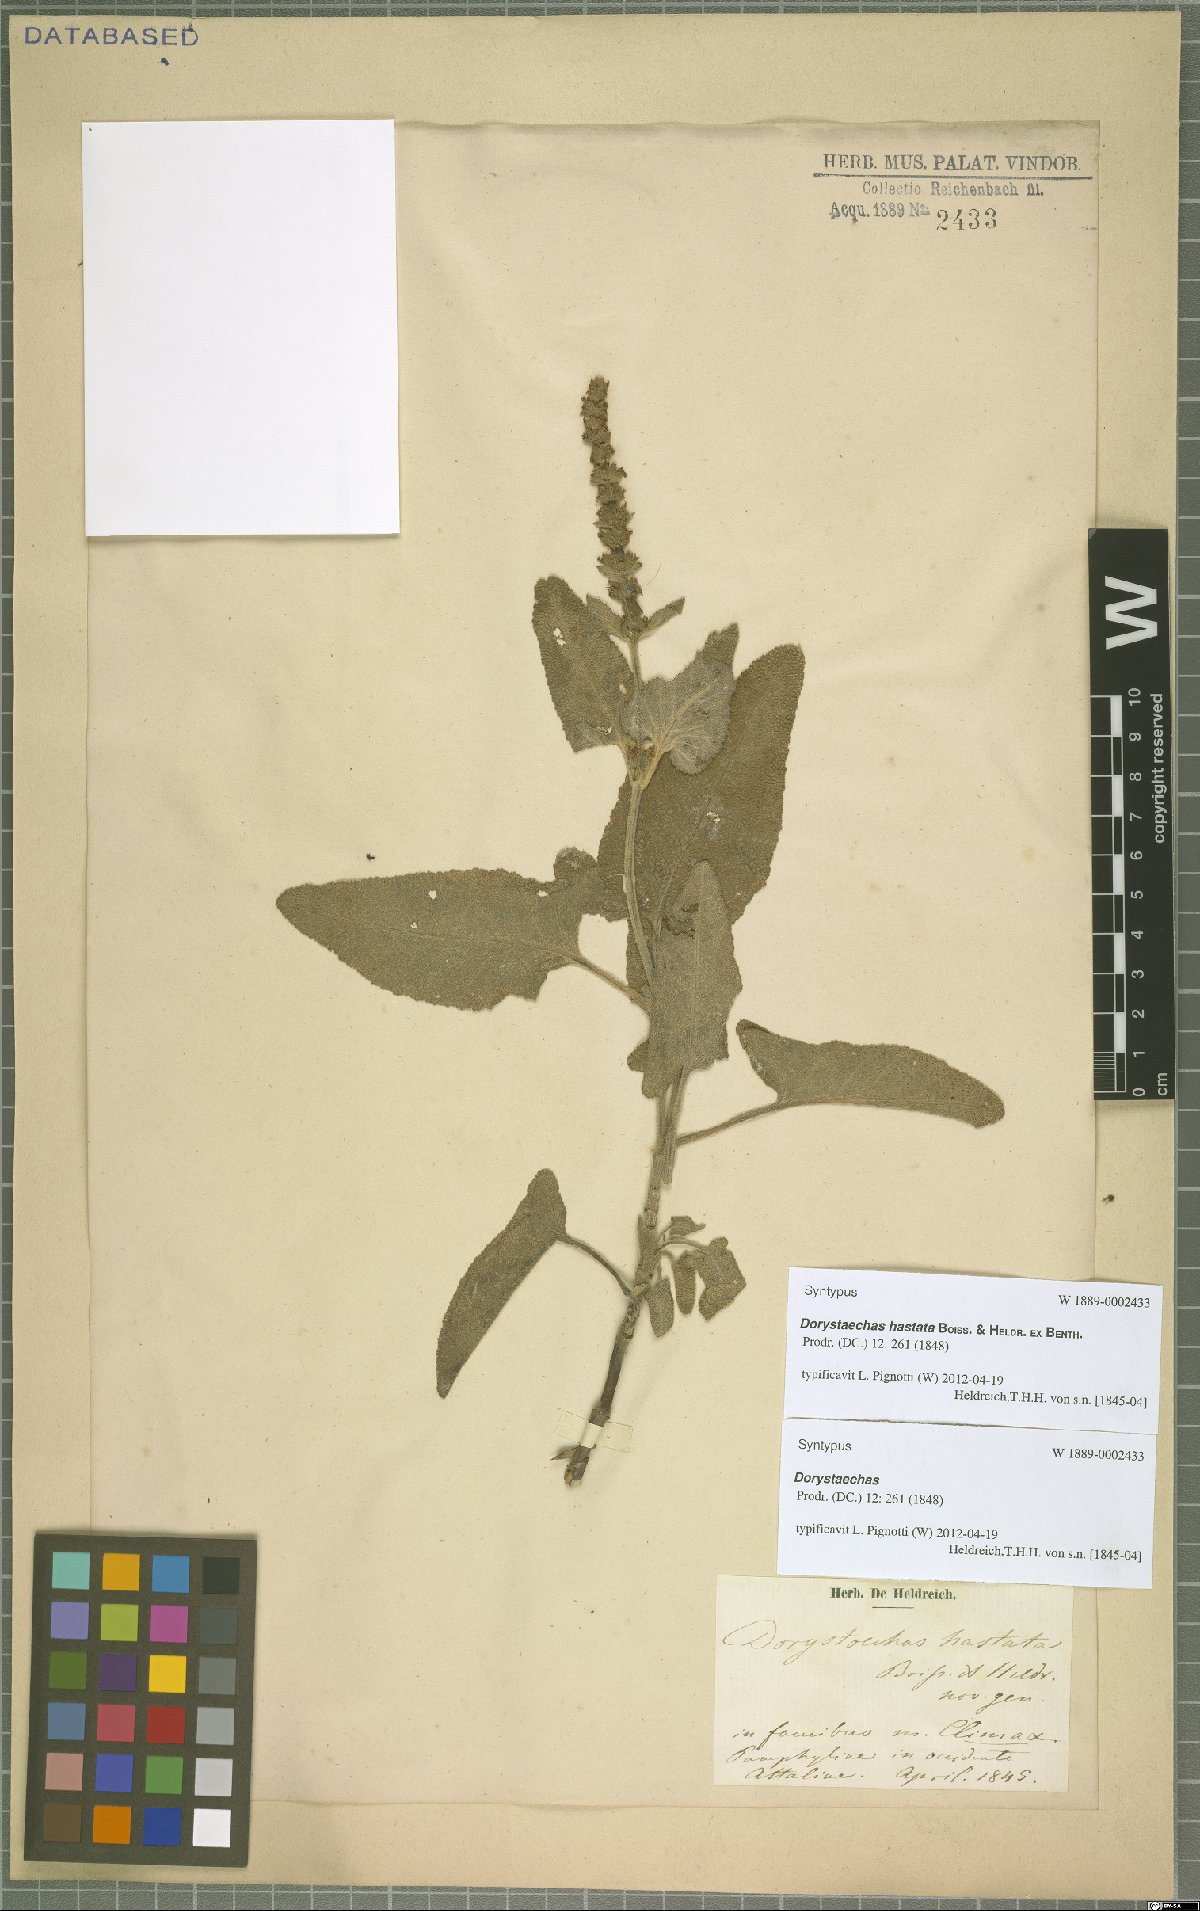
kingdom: Plantae
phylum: Tracheophyta
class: Magnoliopsida
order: Lamiales
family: Lamiaceae
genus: Salvia
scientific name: Salvia dorystaechas
